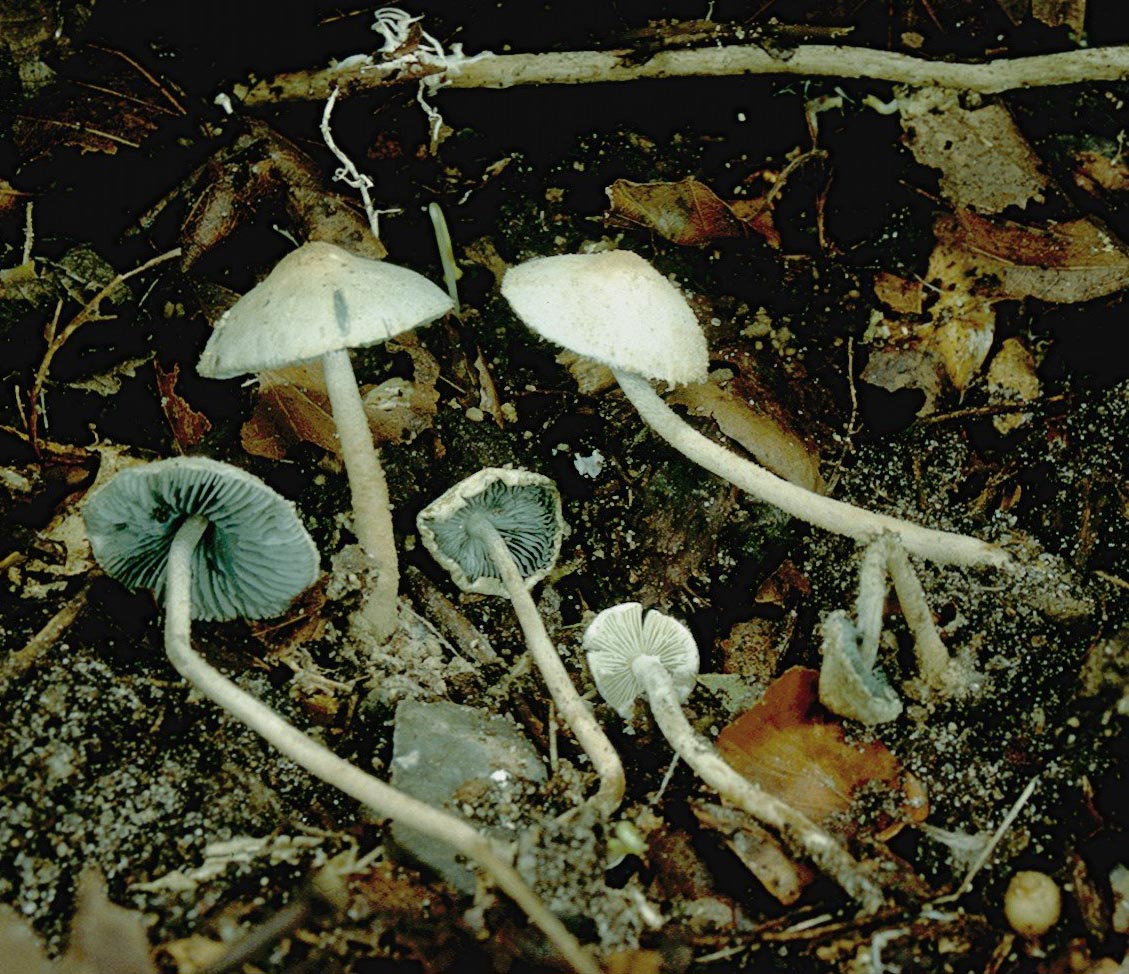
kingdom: Fungi
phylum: Basidiomycota
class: Agaricomycetes
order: Agaricales
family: Agaricaceae
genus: Melanophyllum
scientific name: Melanophyllum eyrei
